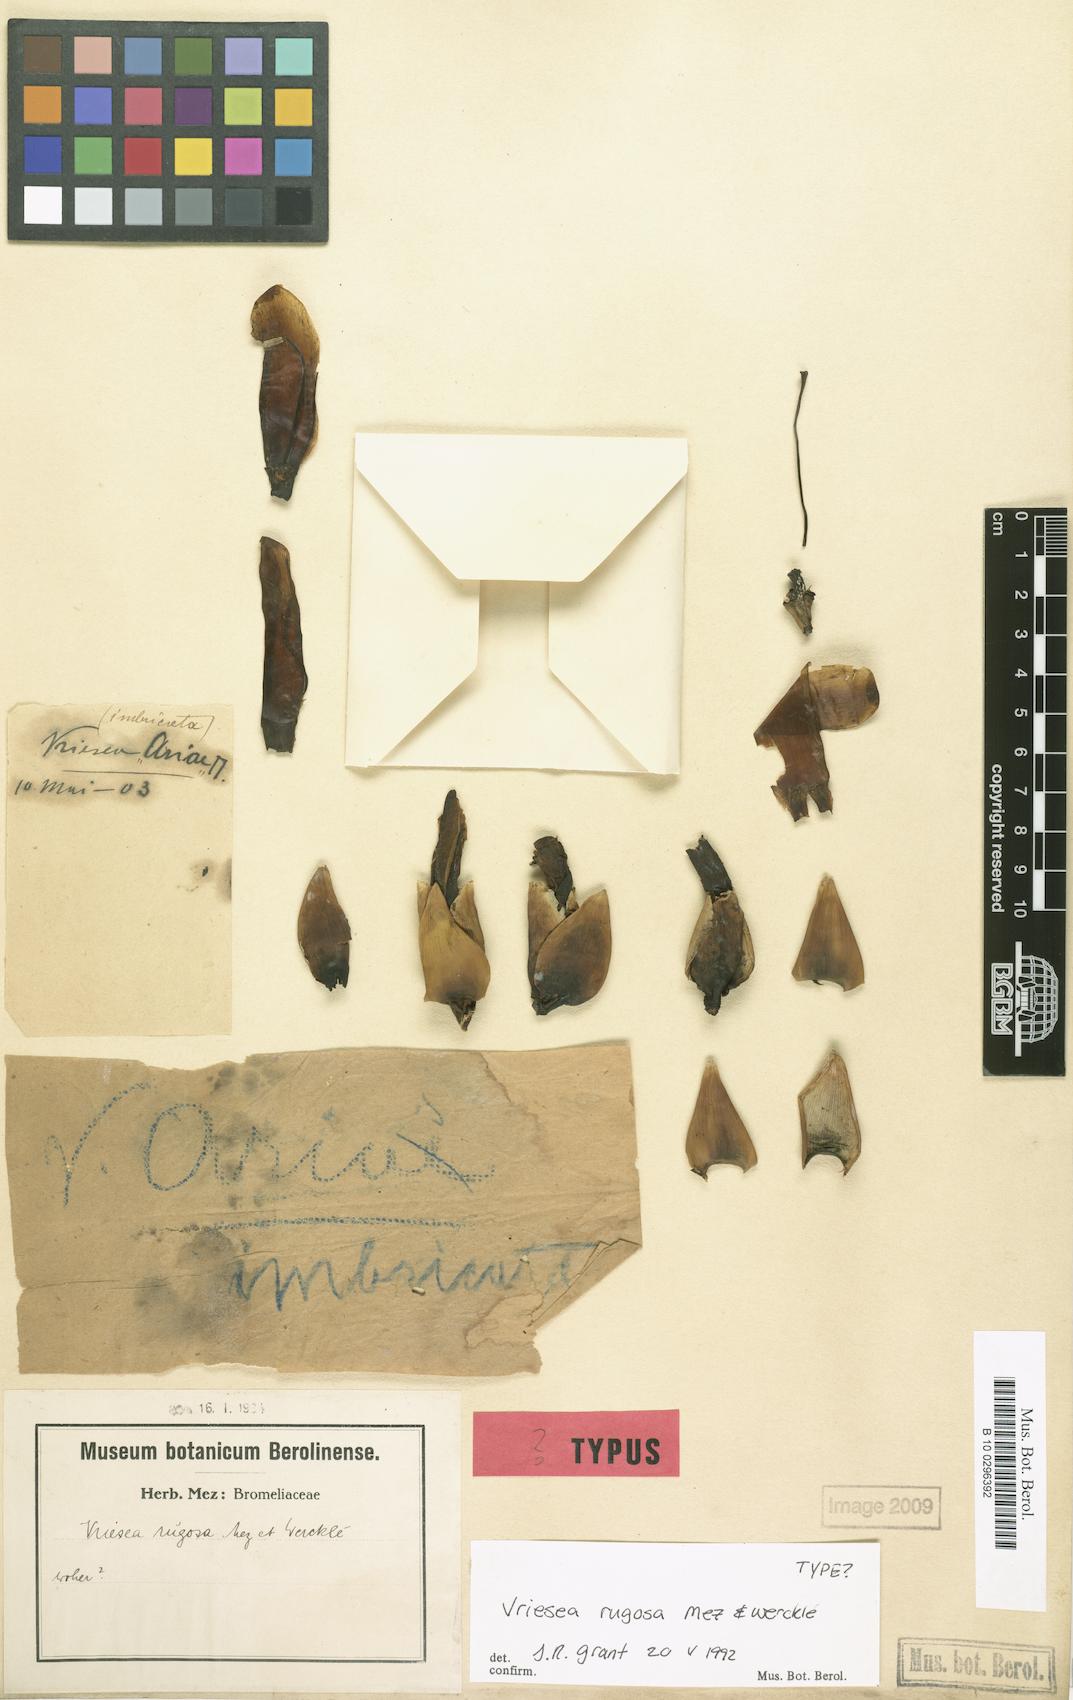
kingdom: Plantae
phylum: Tracheophyta
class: Liliopsida
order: Poales
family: Bromeliaceae
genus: Werauhia
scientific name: Werauhia rugosa
